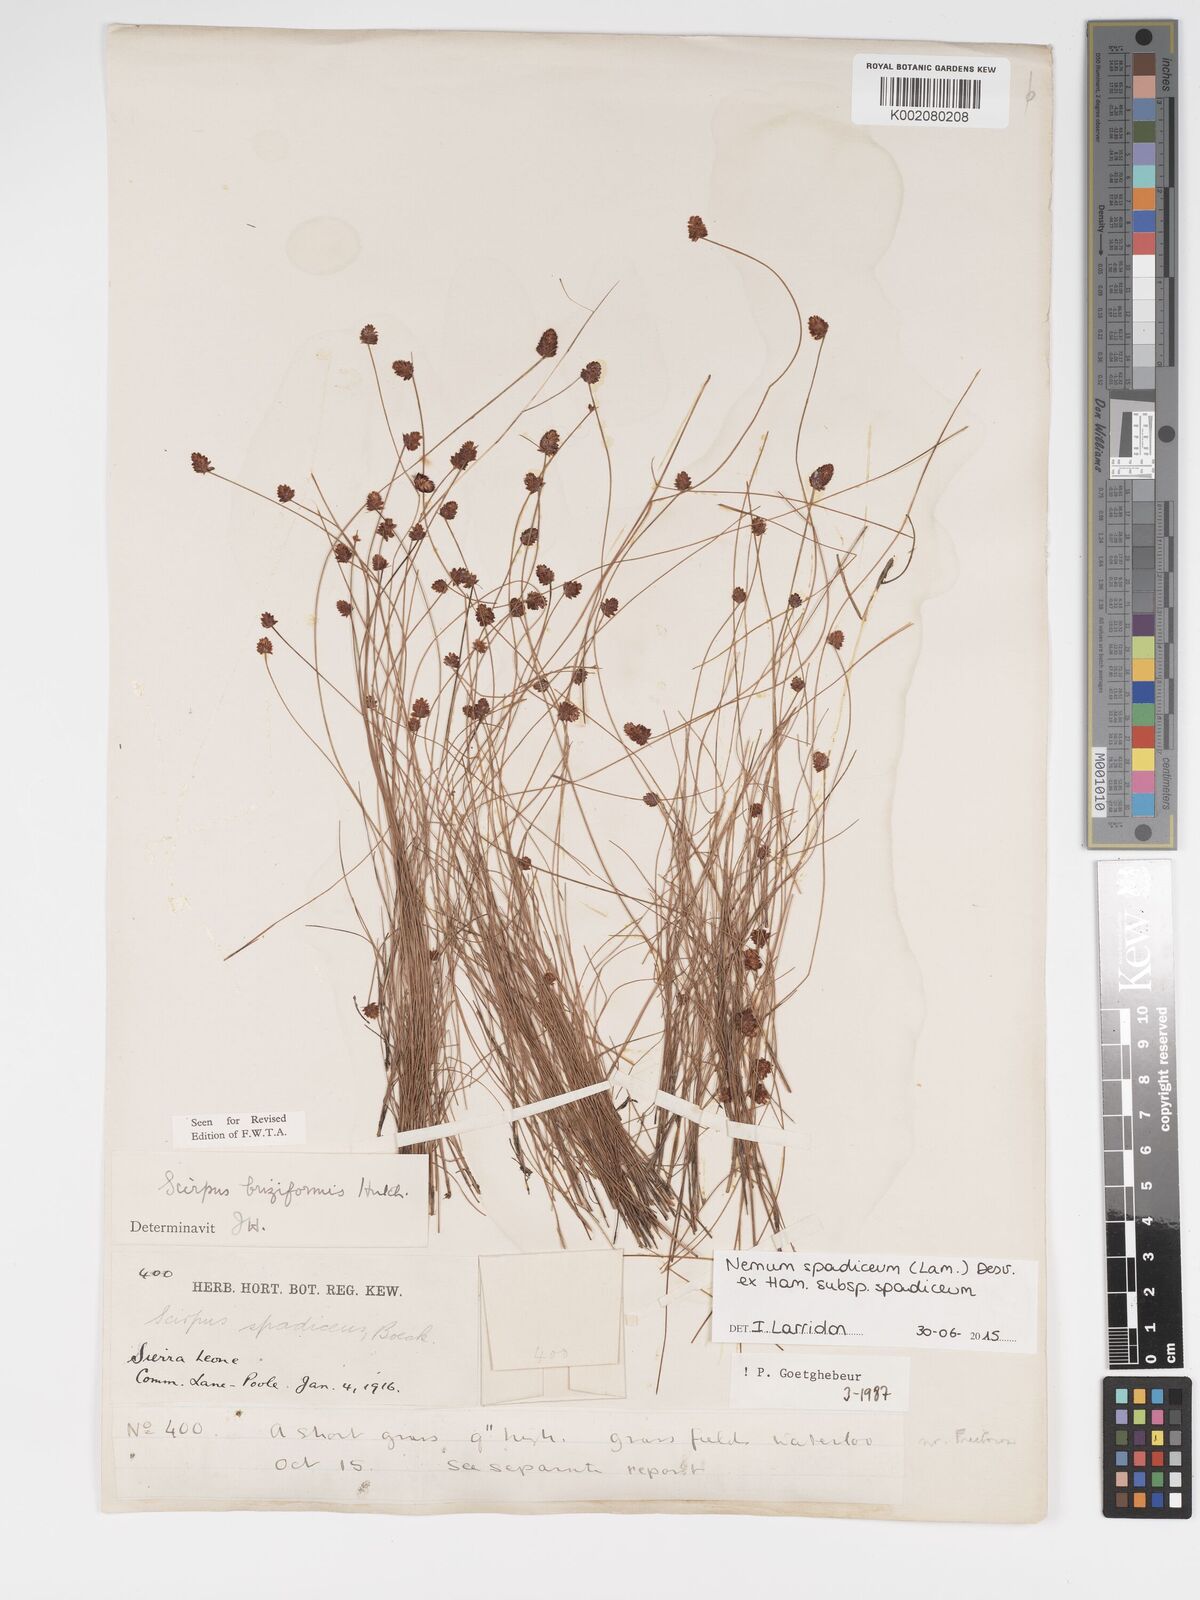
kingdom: Plantae
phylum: Tracheophyta
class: Liliopsida
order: Poales
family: Cyperaceae
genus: Bulbostylis
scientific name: Bulbostylis briziformis
